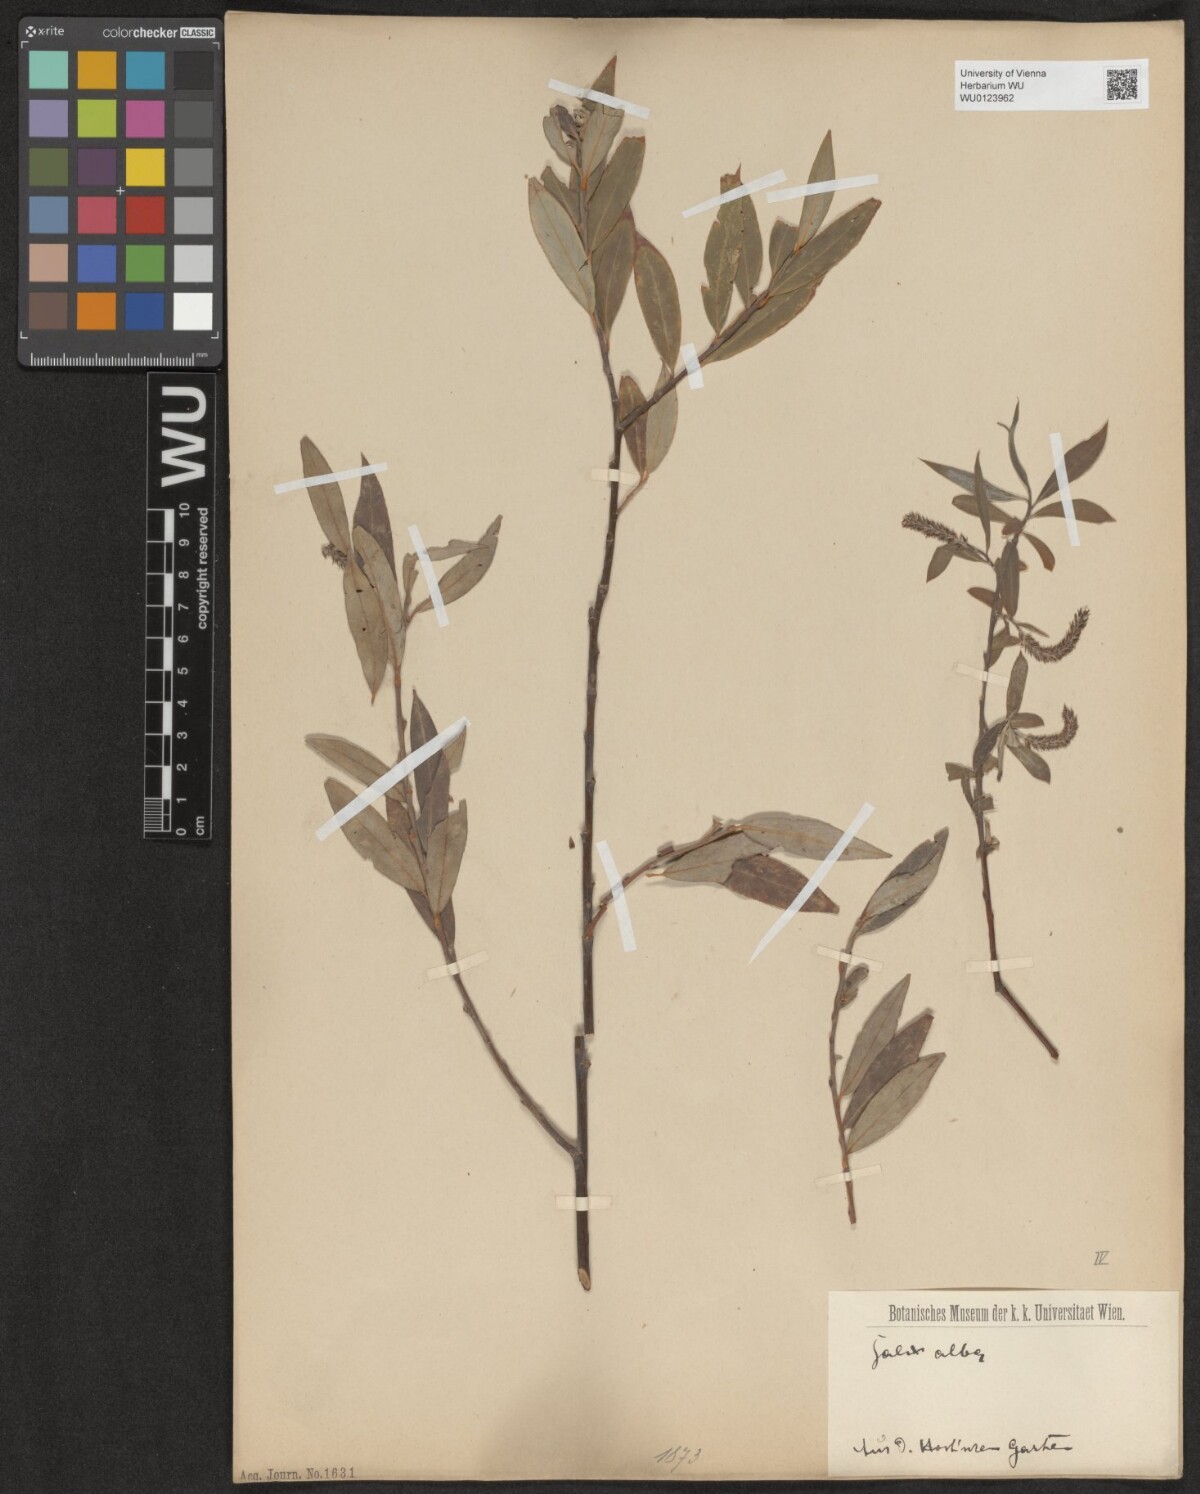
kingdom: Plantae
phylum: Tracheophyta
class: Magnoliopsida
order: Malpighiales
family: Salicaceae
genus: Salix
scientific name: Salix alba
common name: White willow
